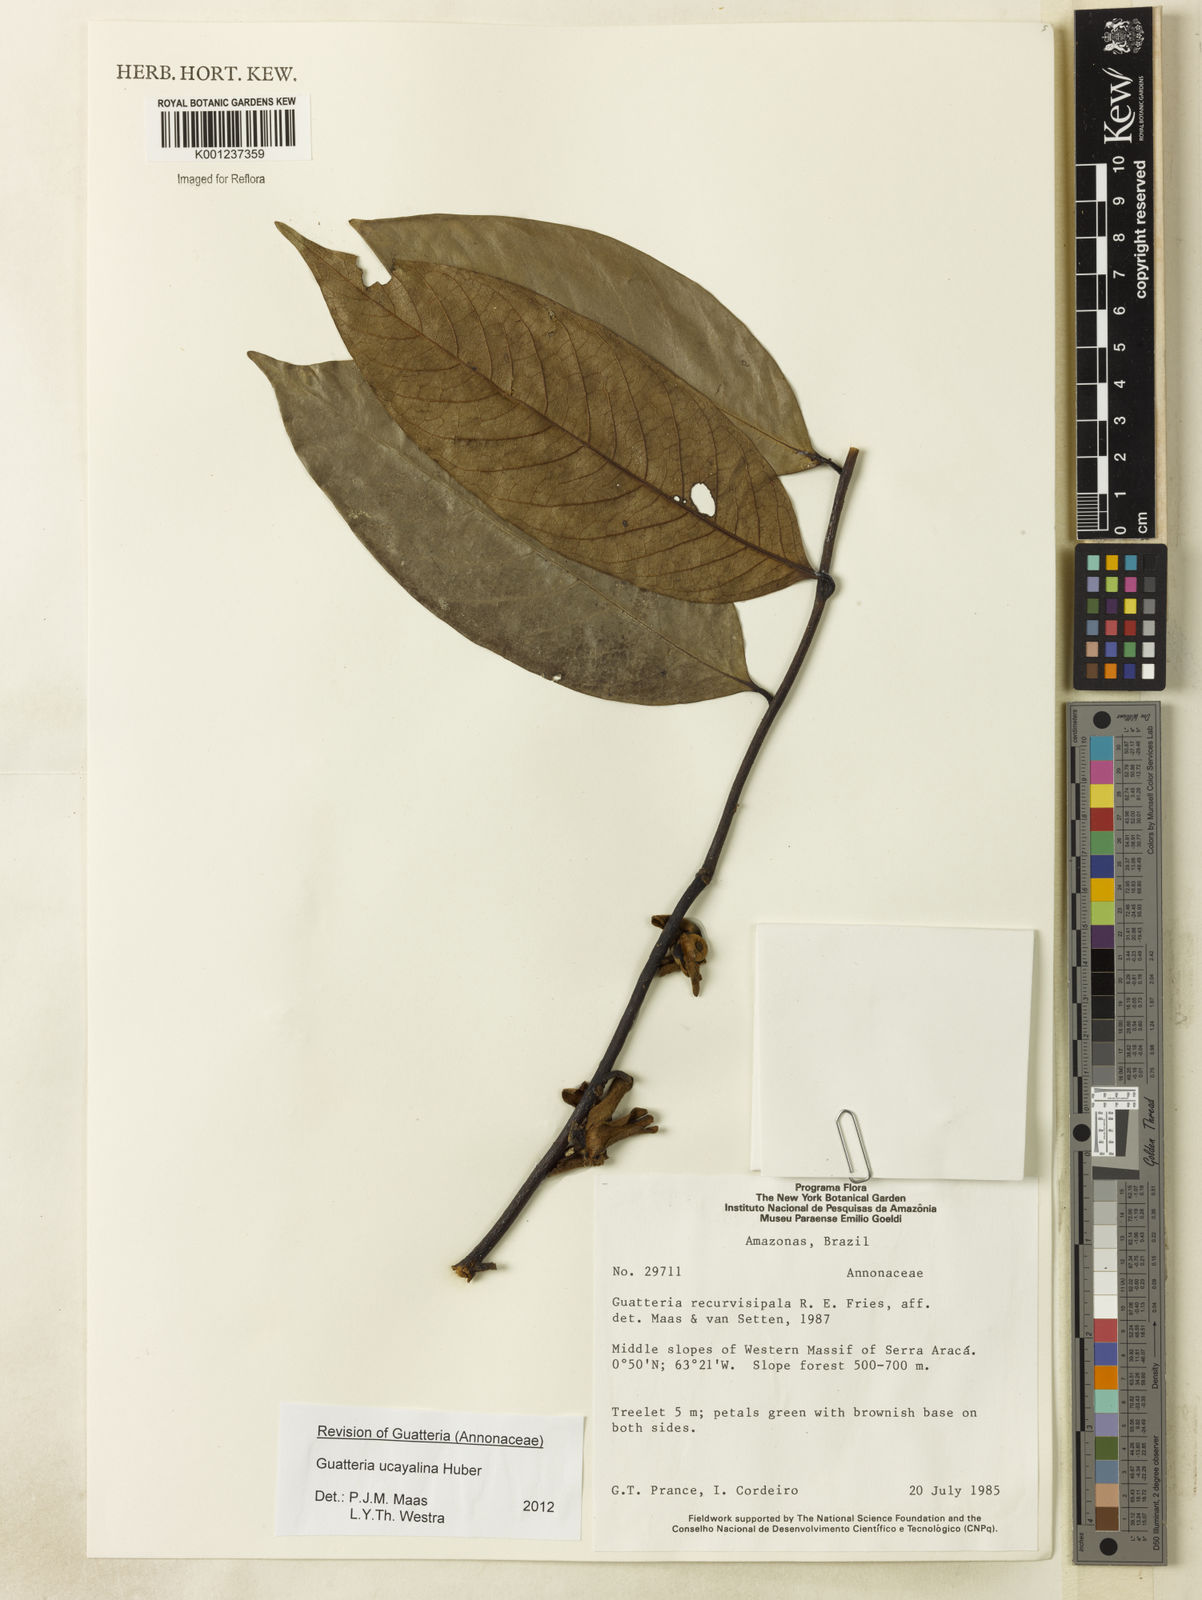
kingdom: Plantae
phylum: Tracheophyta
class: Magnoliopsida
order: Magnoliales
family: Annonaceae
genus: Guatteria
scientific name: Guatteria blepharophylla
